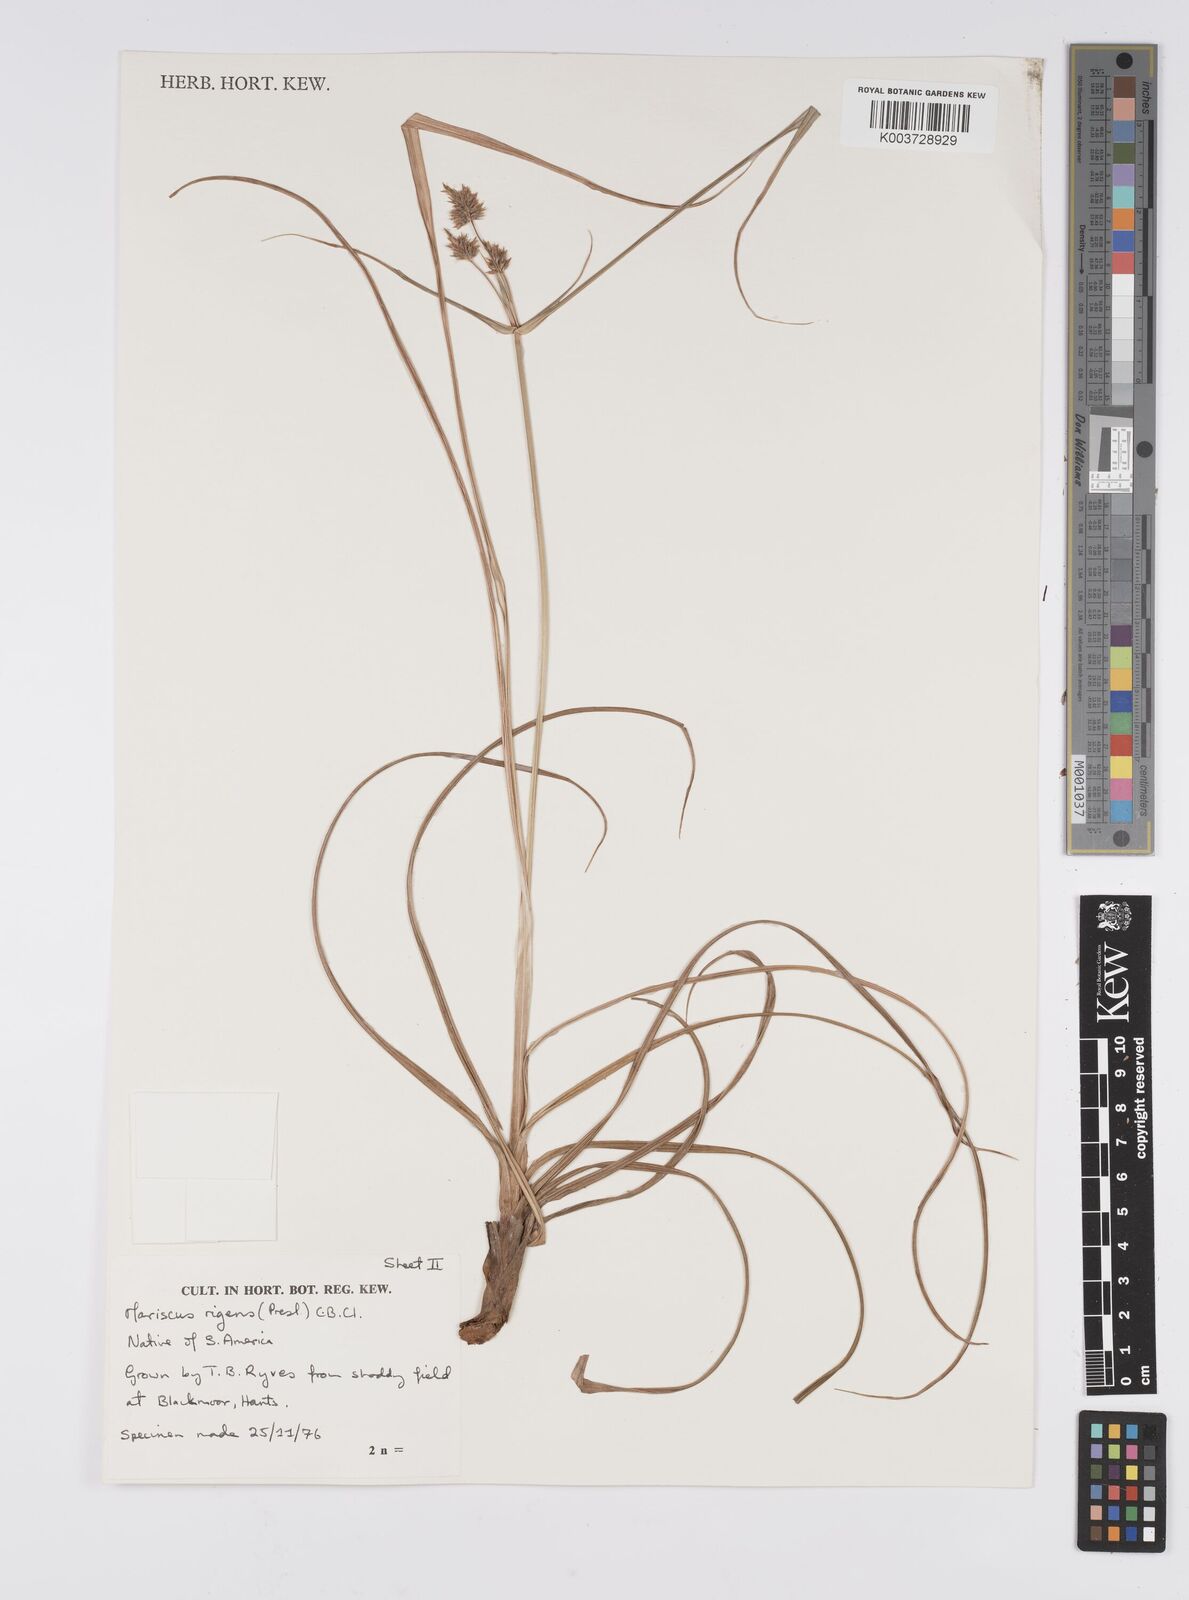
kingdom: Plantae
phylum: Tracheophyta
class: Liliopsida
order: Poales
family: Cyperaceae
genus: Cyperus
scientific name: Cyperus rigens
